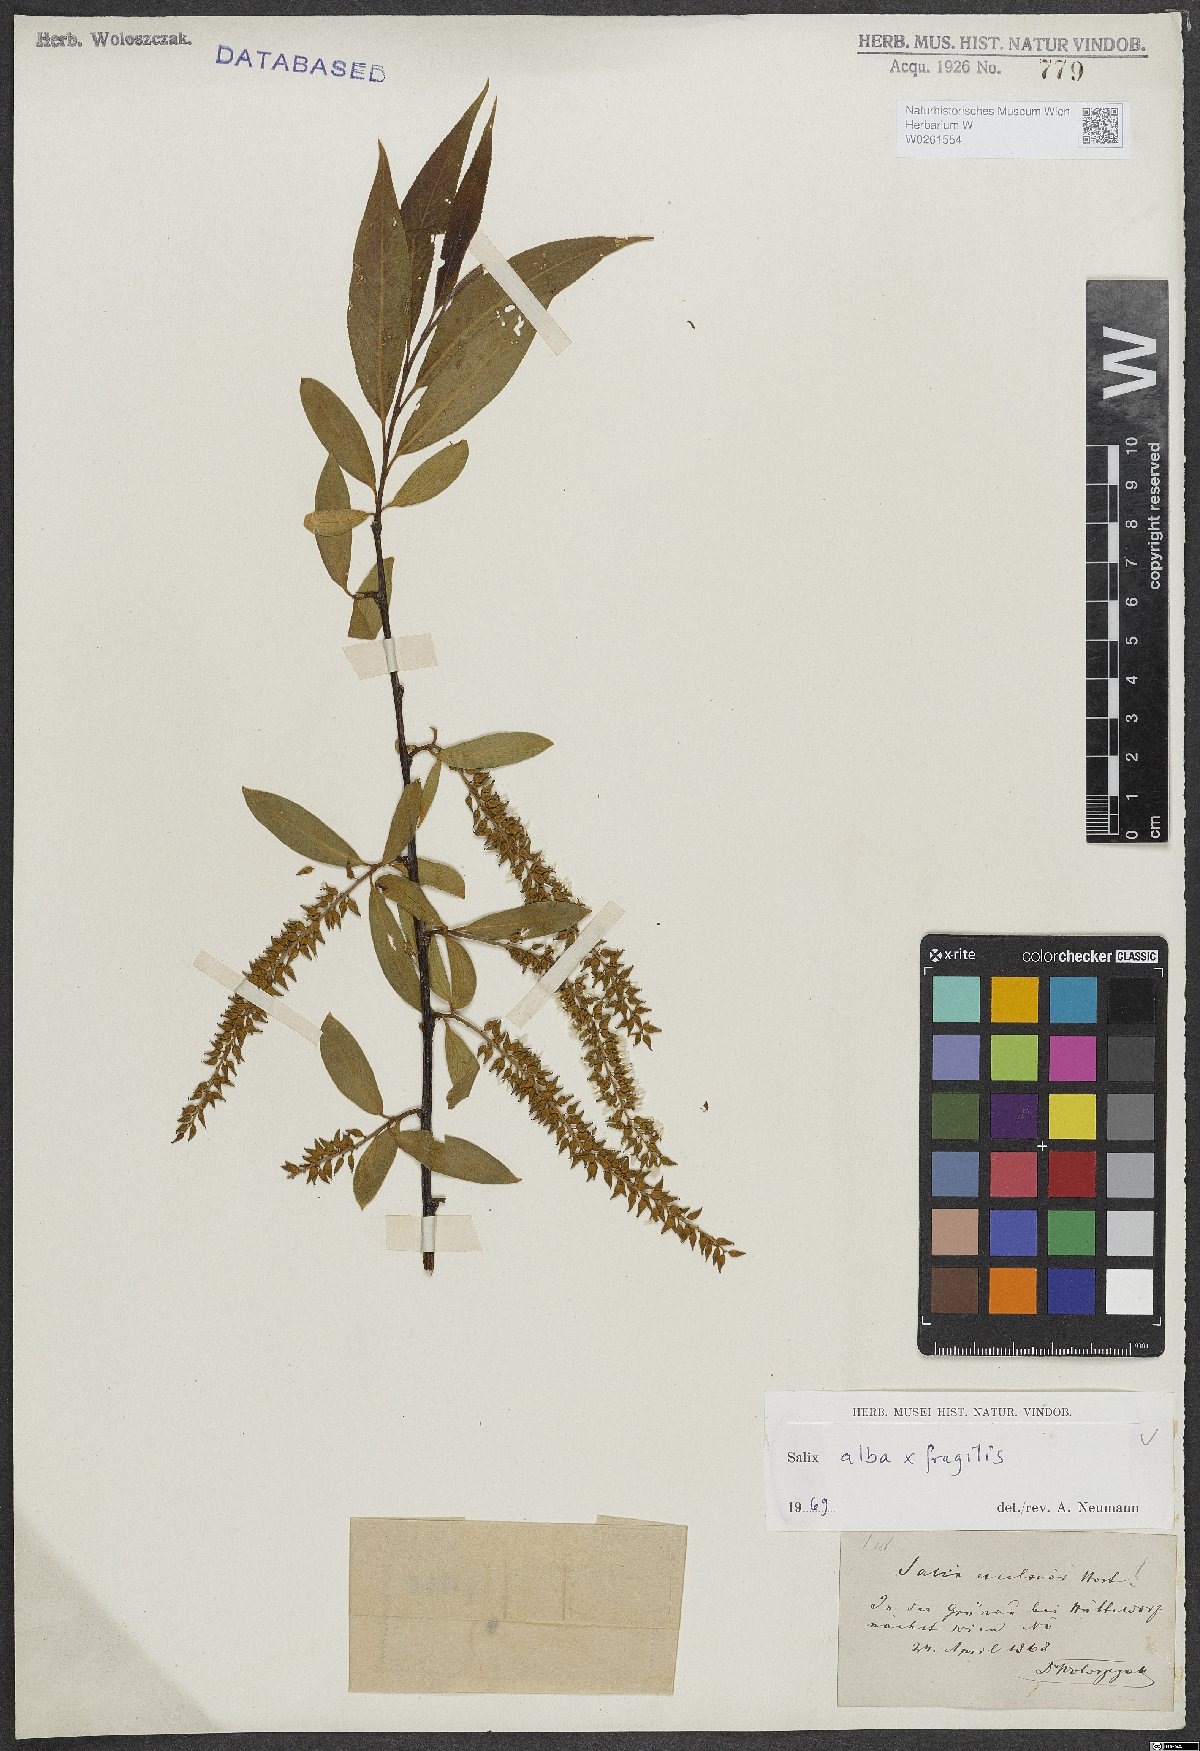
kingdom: Plantae
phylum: Tracheophyta
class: Magnoliopsida
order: Malpighiales
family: Salicaceae
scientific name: Salicaceae
